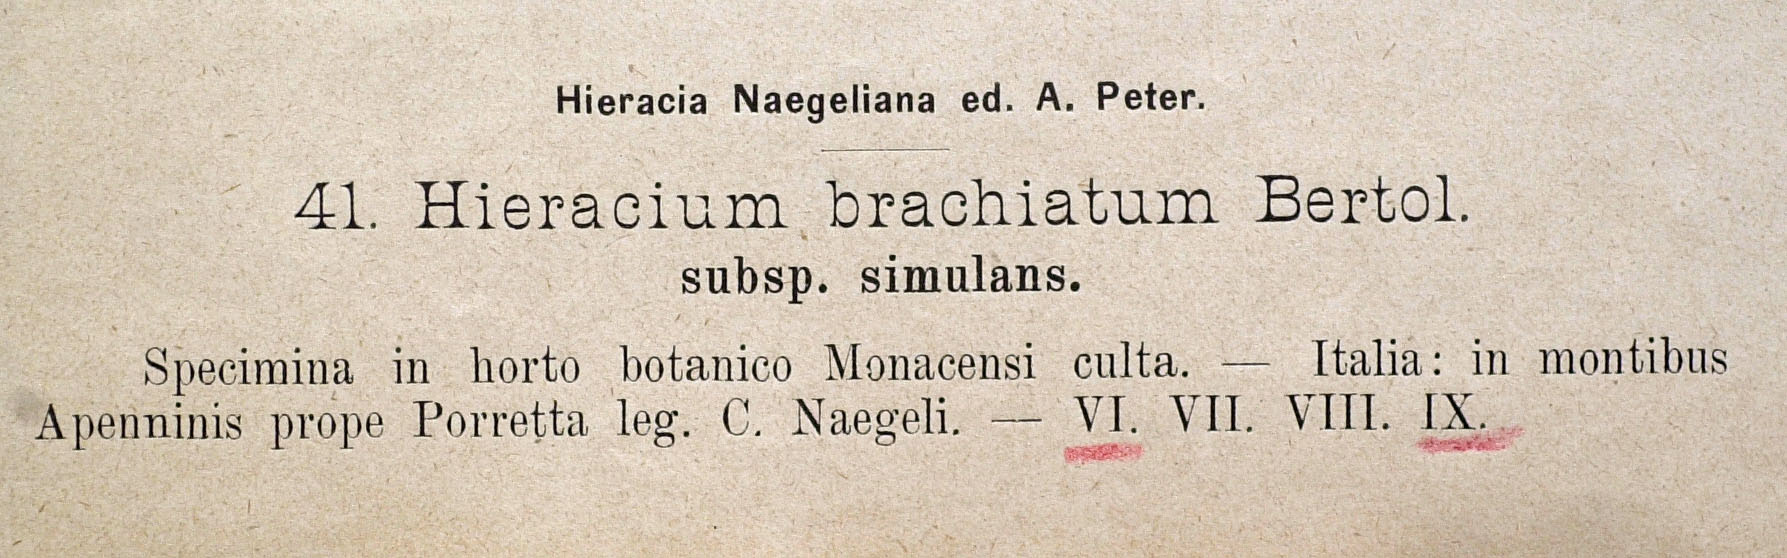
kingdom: Plantae
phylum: Tracheophyta
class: Magnoliopsida
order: Asterales
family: Asteraceae
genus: Pilosella
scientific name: Pilosella acutifolia
